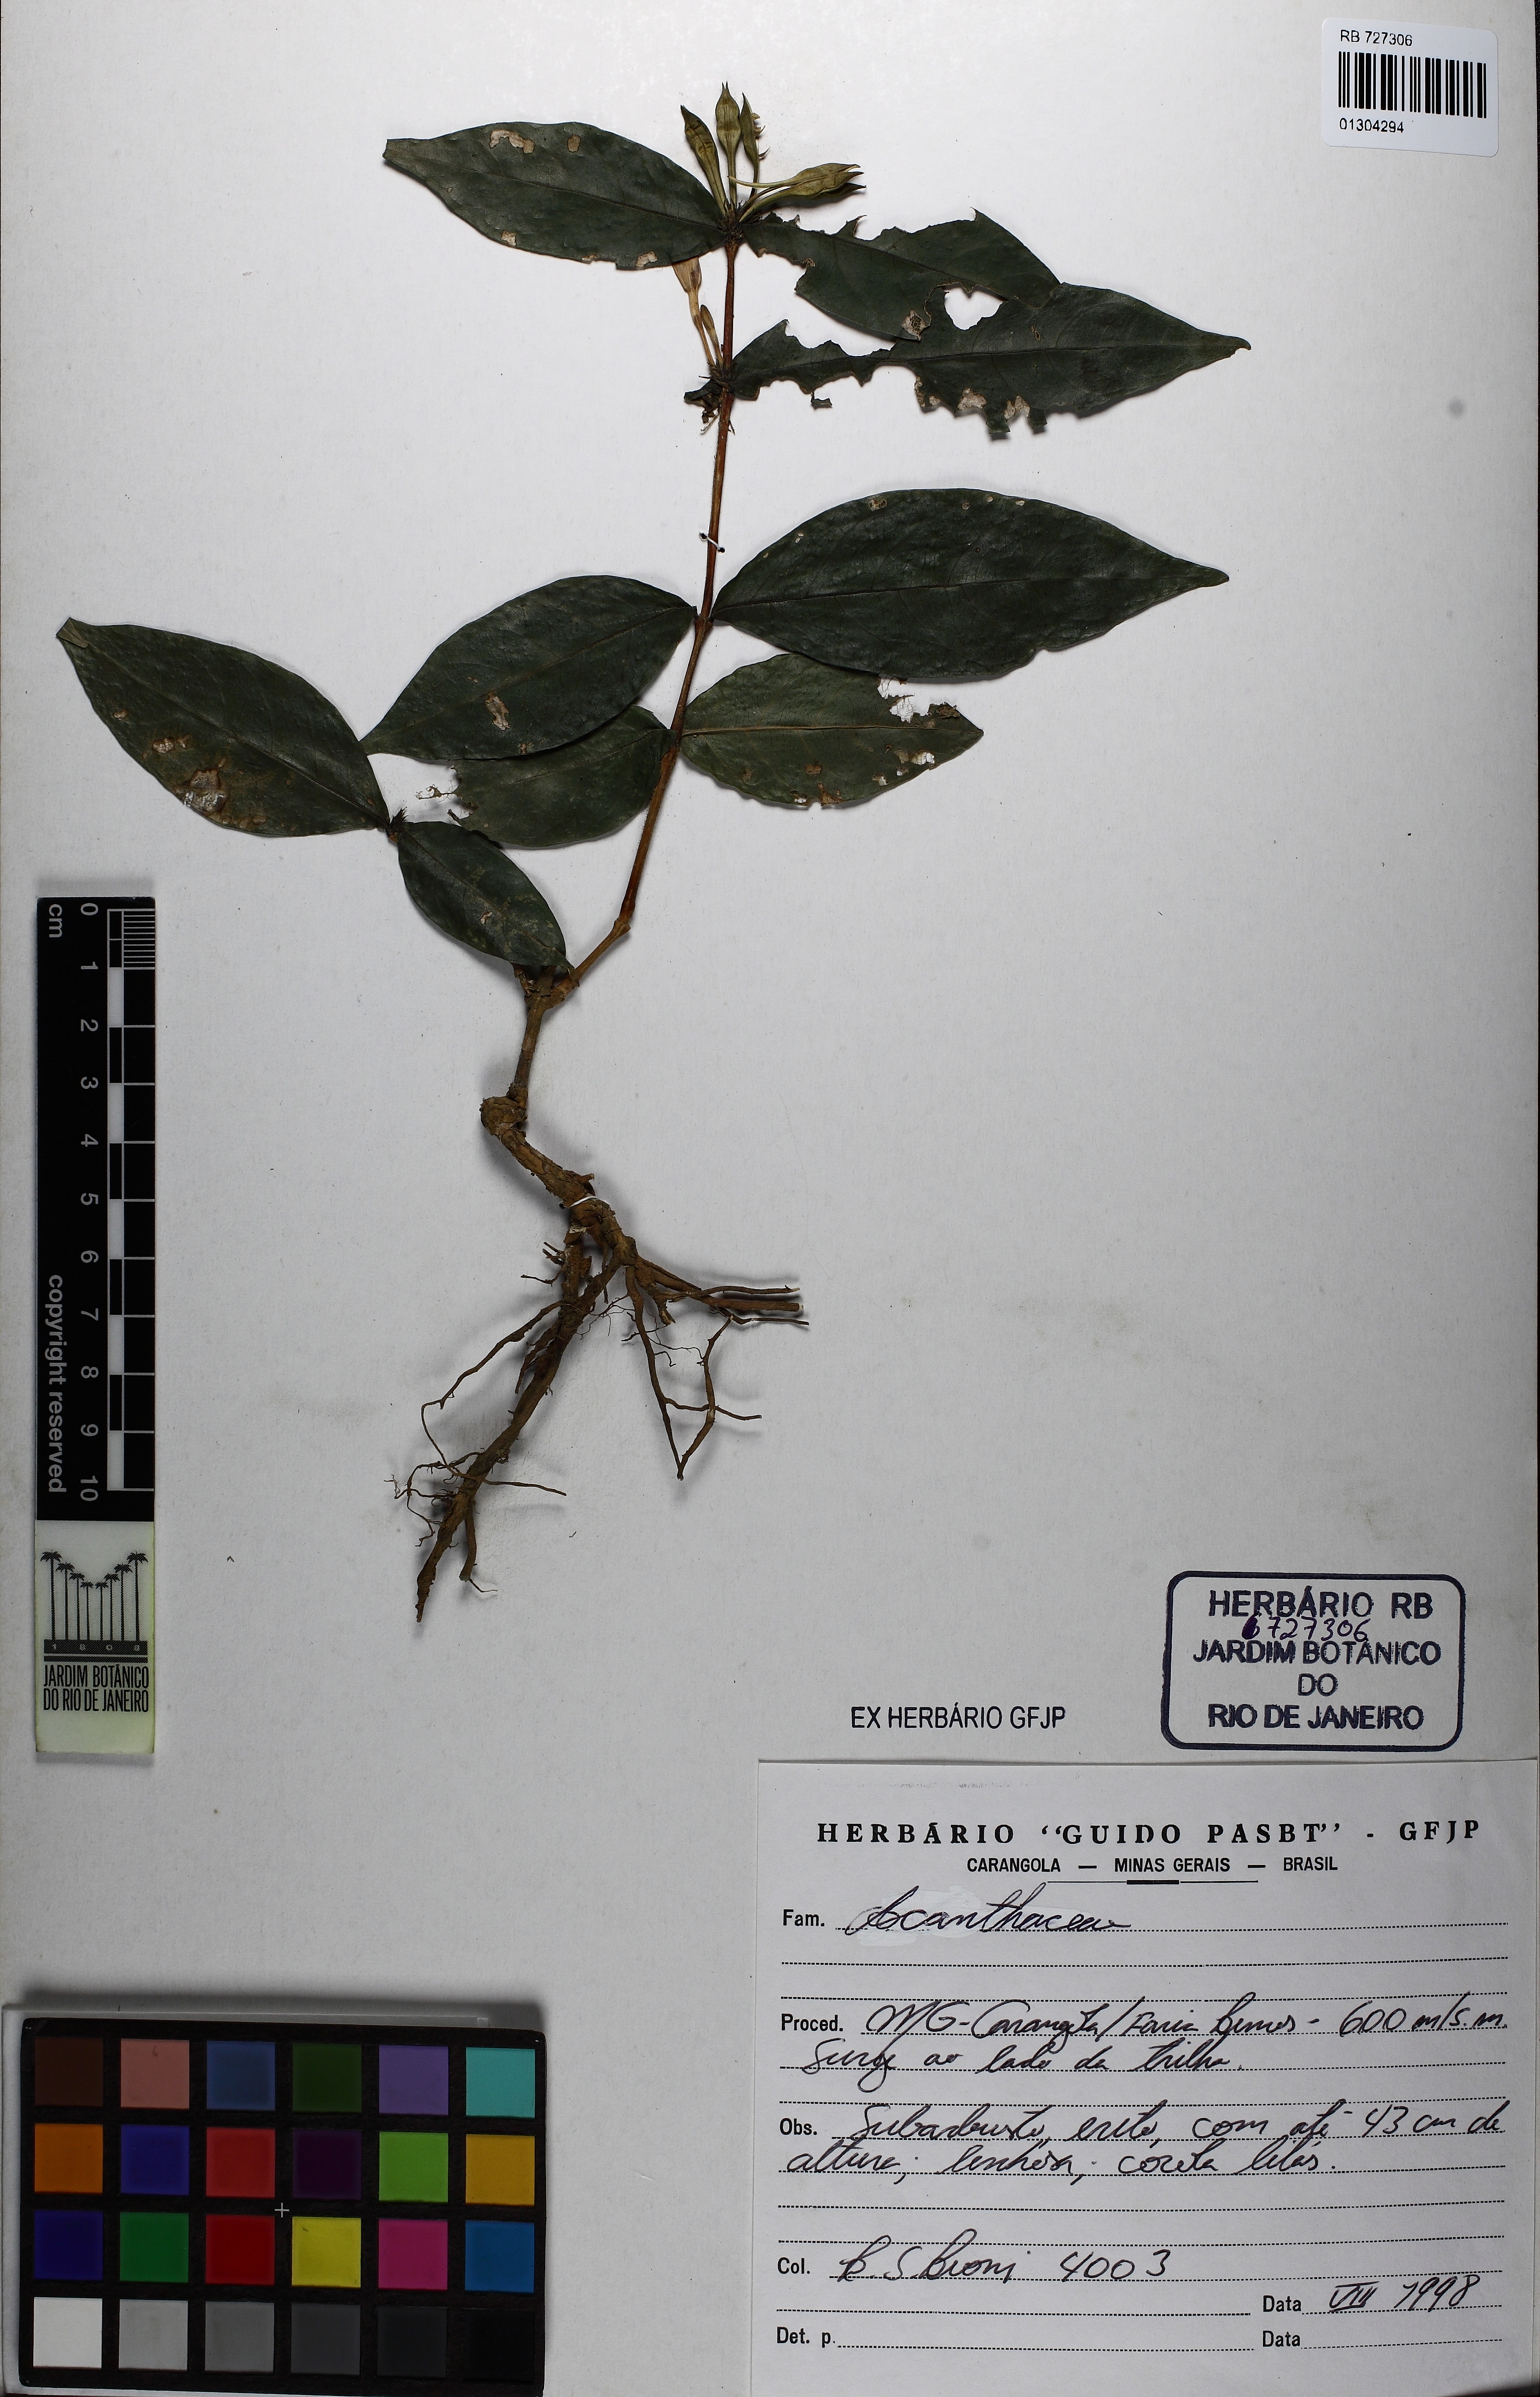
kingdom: Plantae
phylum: Tracheophyta
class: Magnoliopsida
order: Lamiales
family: Acanthaceae
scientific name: Acanthaceae
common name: Acanthaceae
